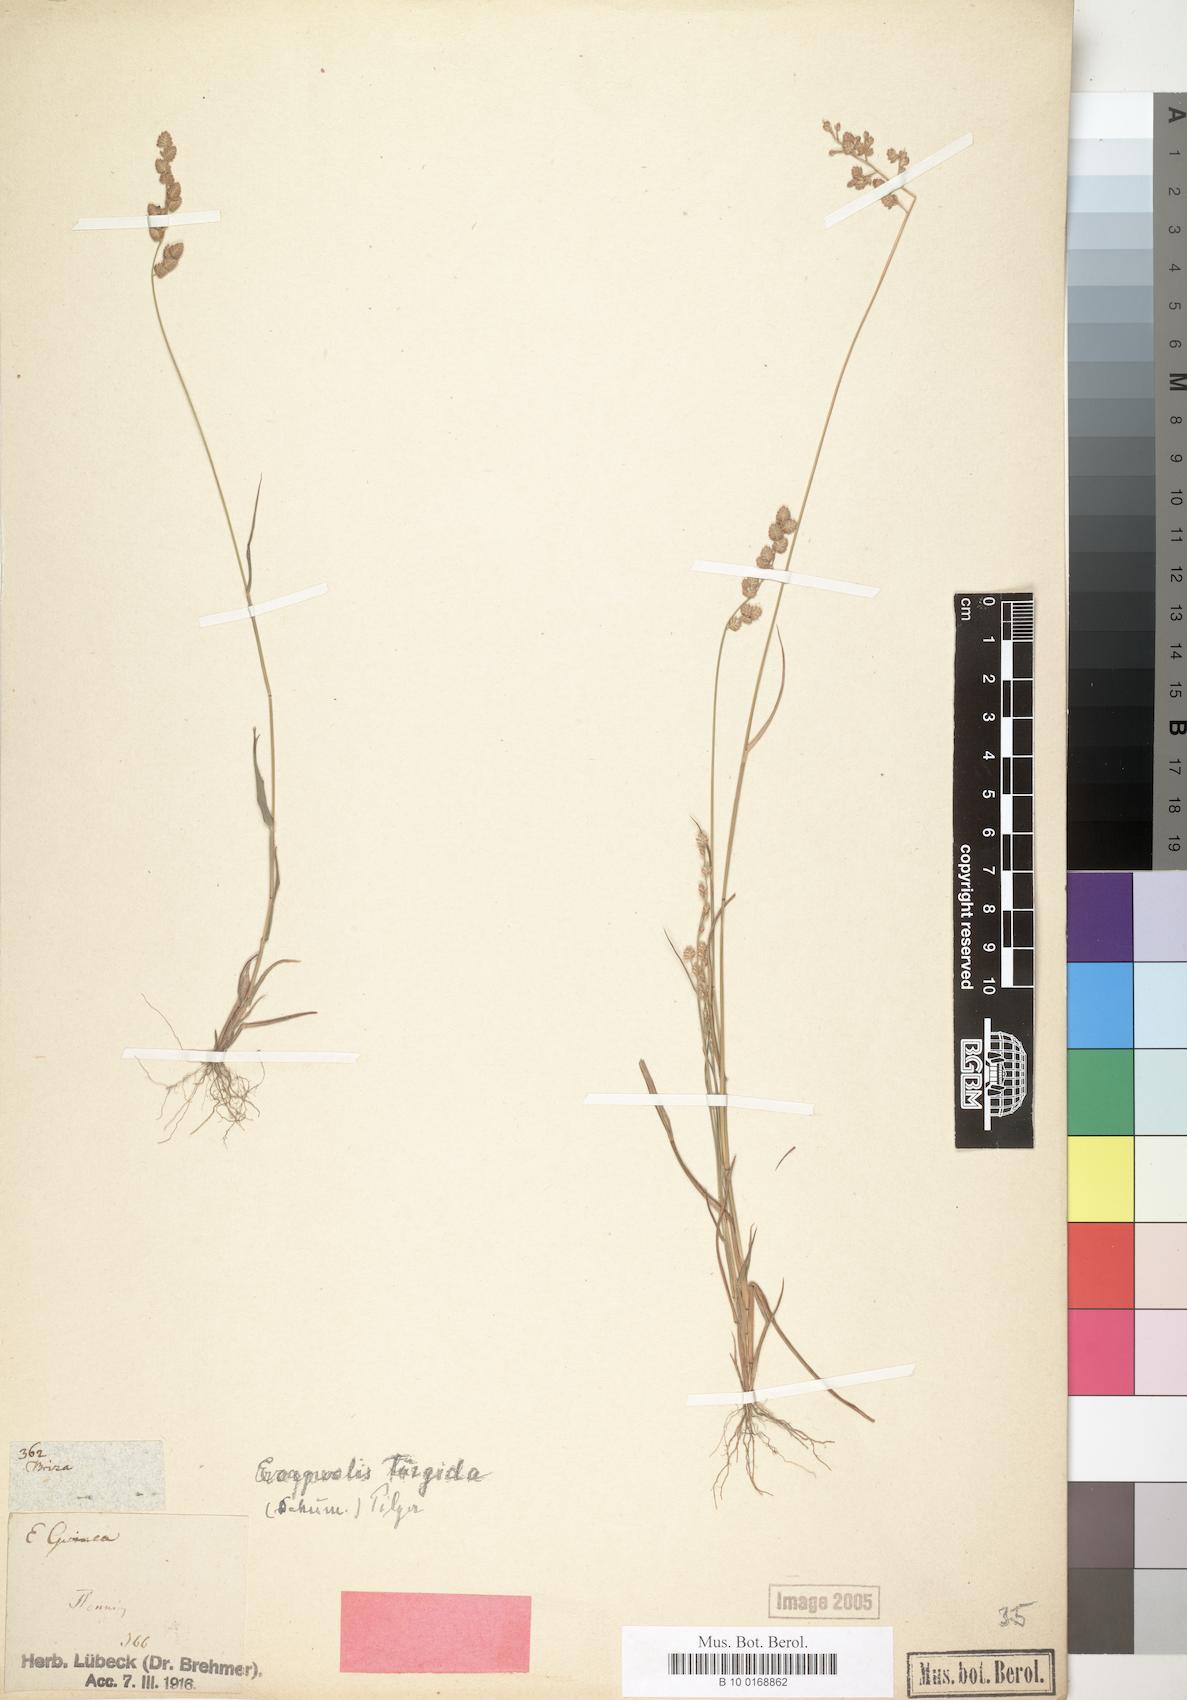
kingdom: Plantae
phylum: Tracheophyta
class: Liliopsida
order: Poales
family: Poaceae
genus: Eragrostis
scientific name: Eragrostis turgida
